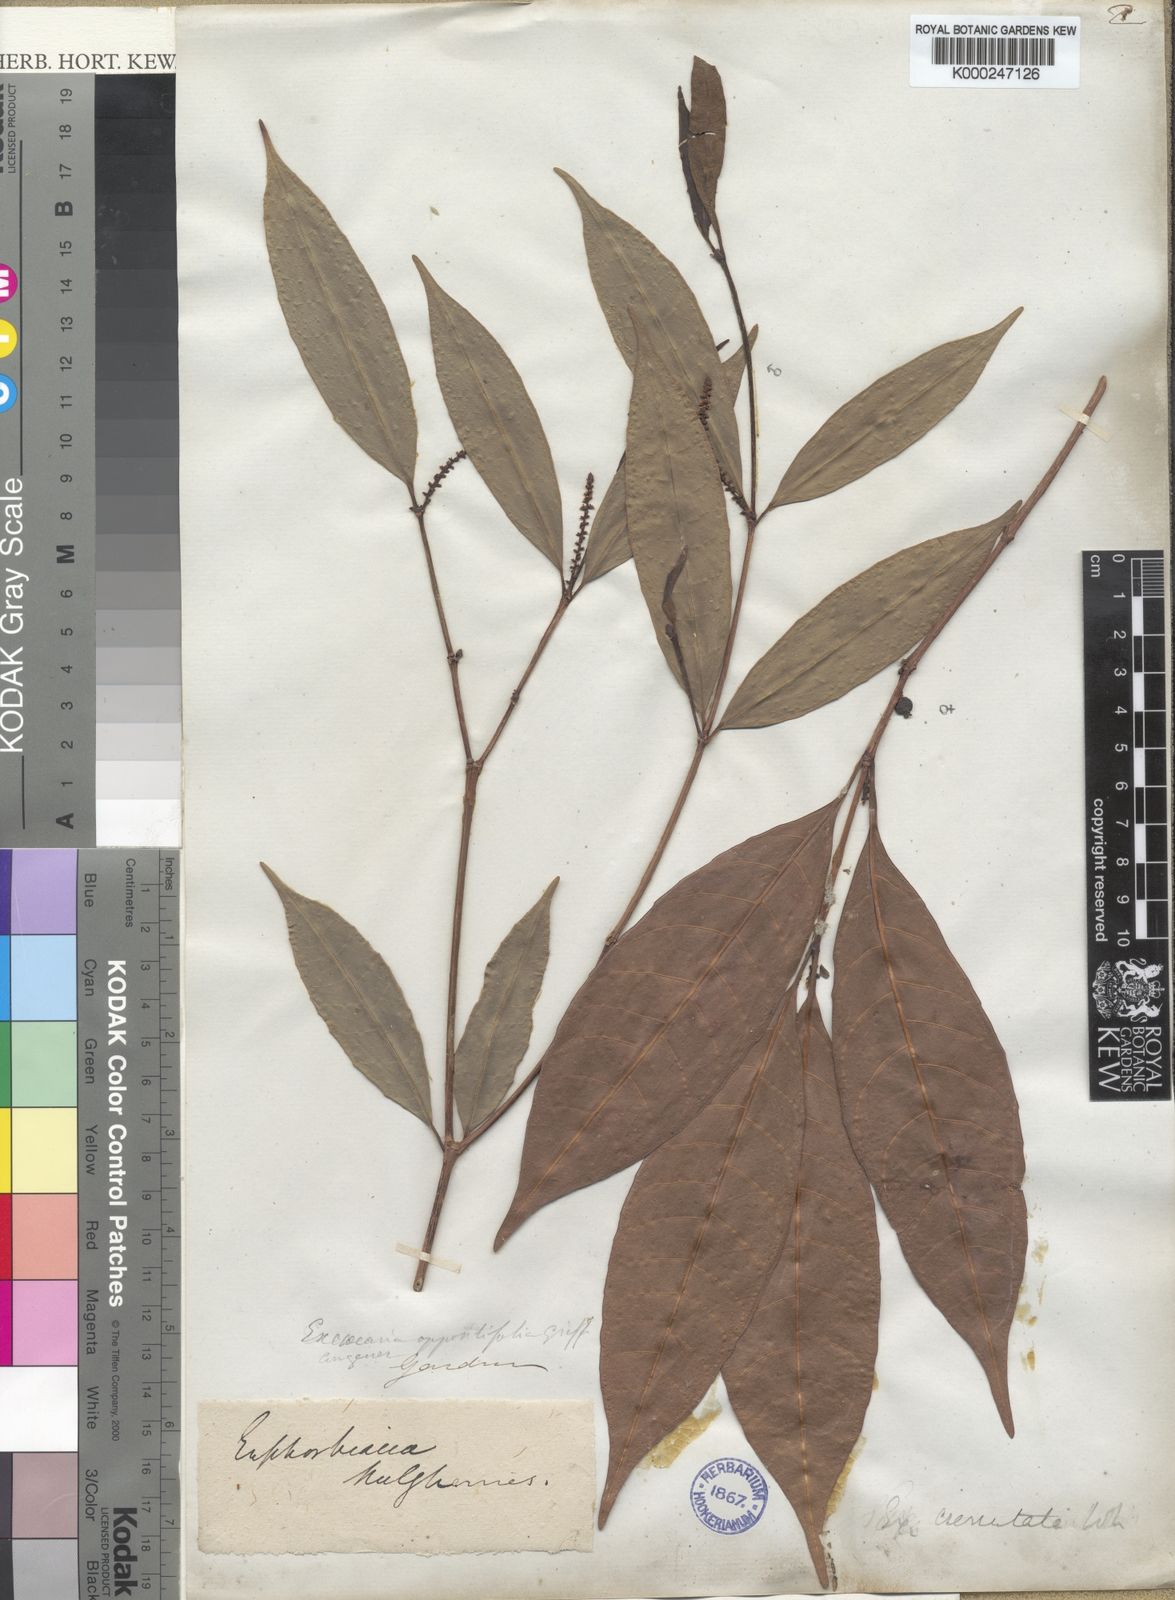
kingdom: Plantae
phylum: Tracheophyta
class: Magnoliopsida
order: Malpighiales
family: Euphorbiaceae
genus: Excoecaria
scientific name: Excoecaria oppositifolia
